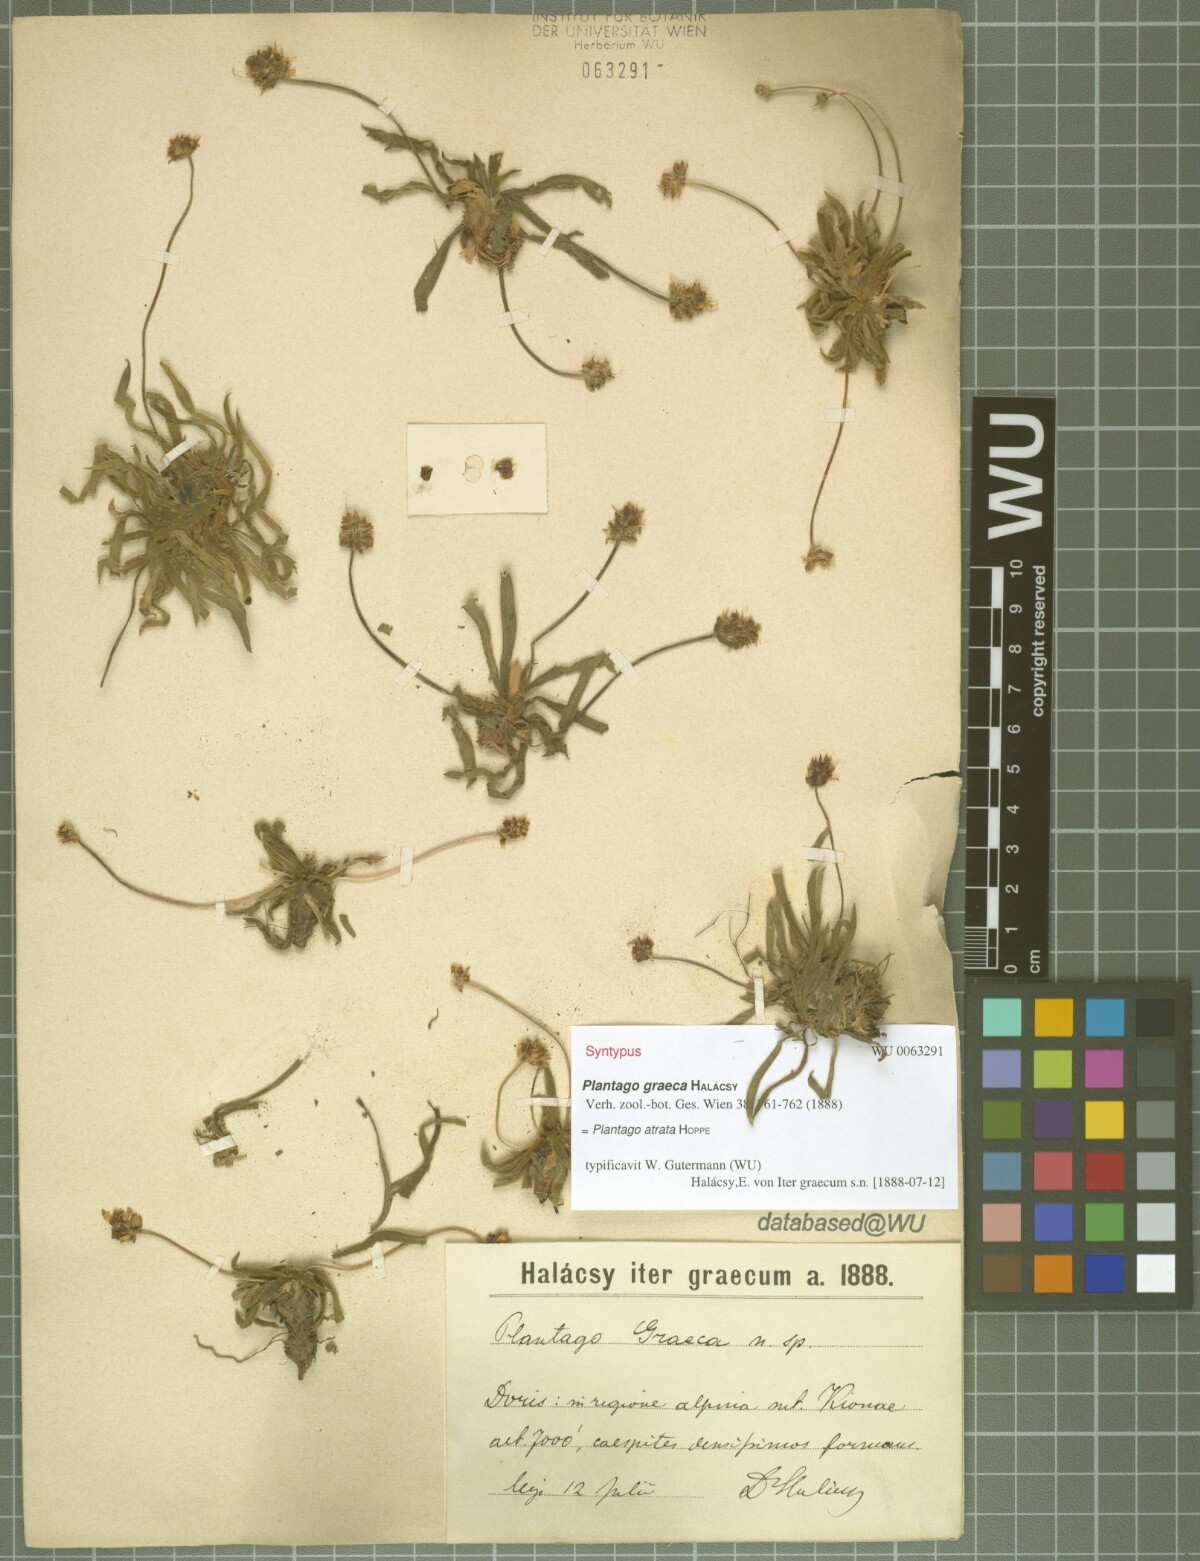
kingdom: Plantae
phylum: Tracheophyta
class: Magnoliopsida
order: Lamiales
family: Plantaginaceae
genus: Plantago
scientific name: Plantago atrata
